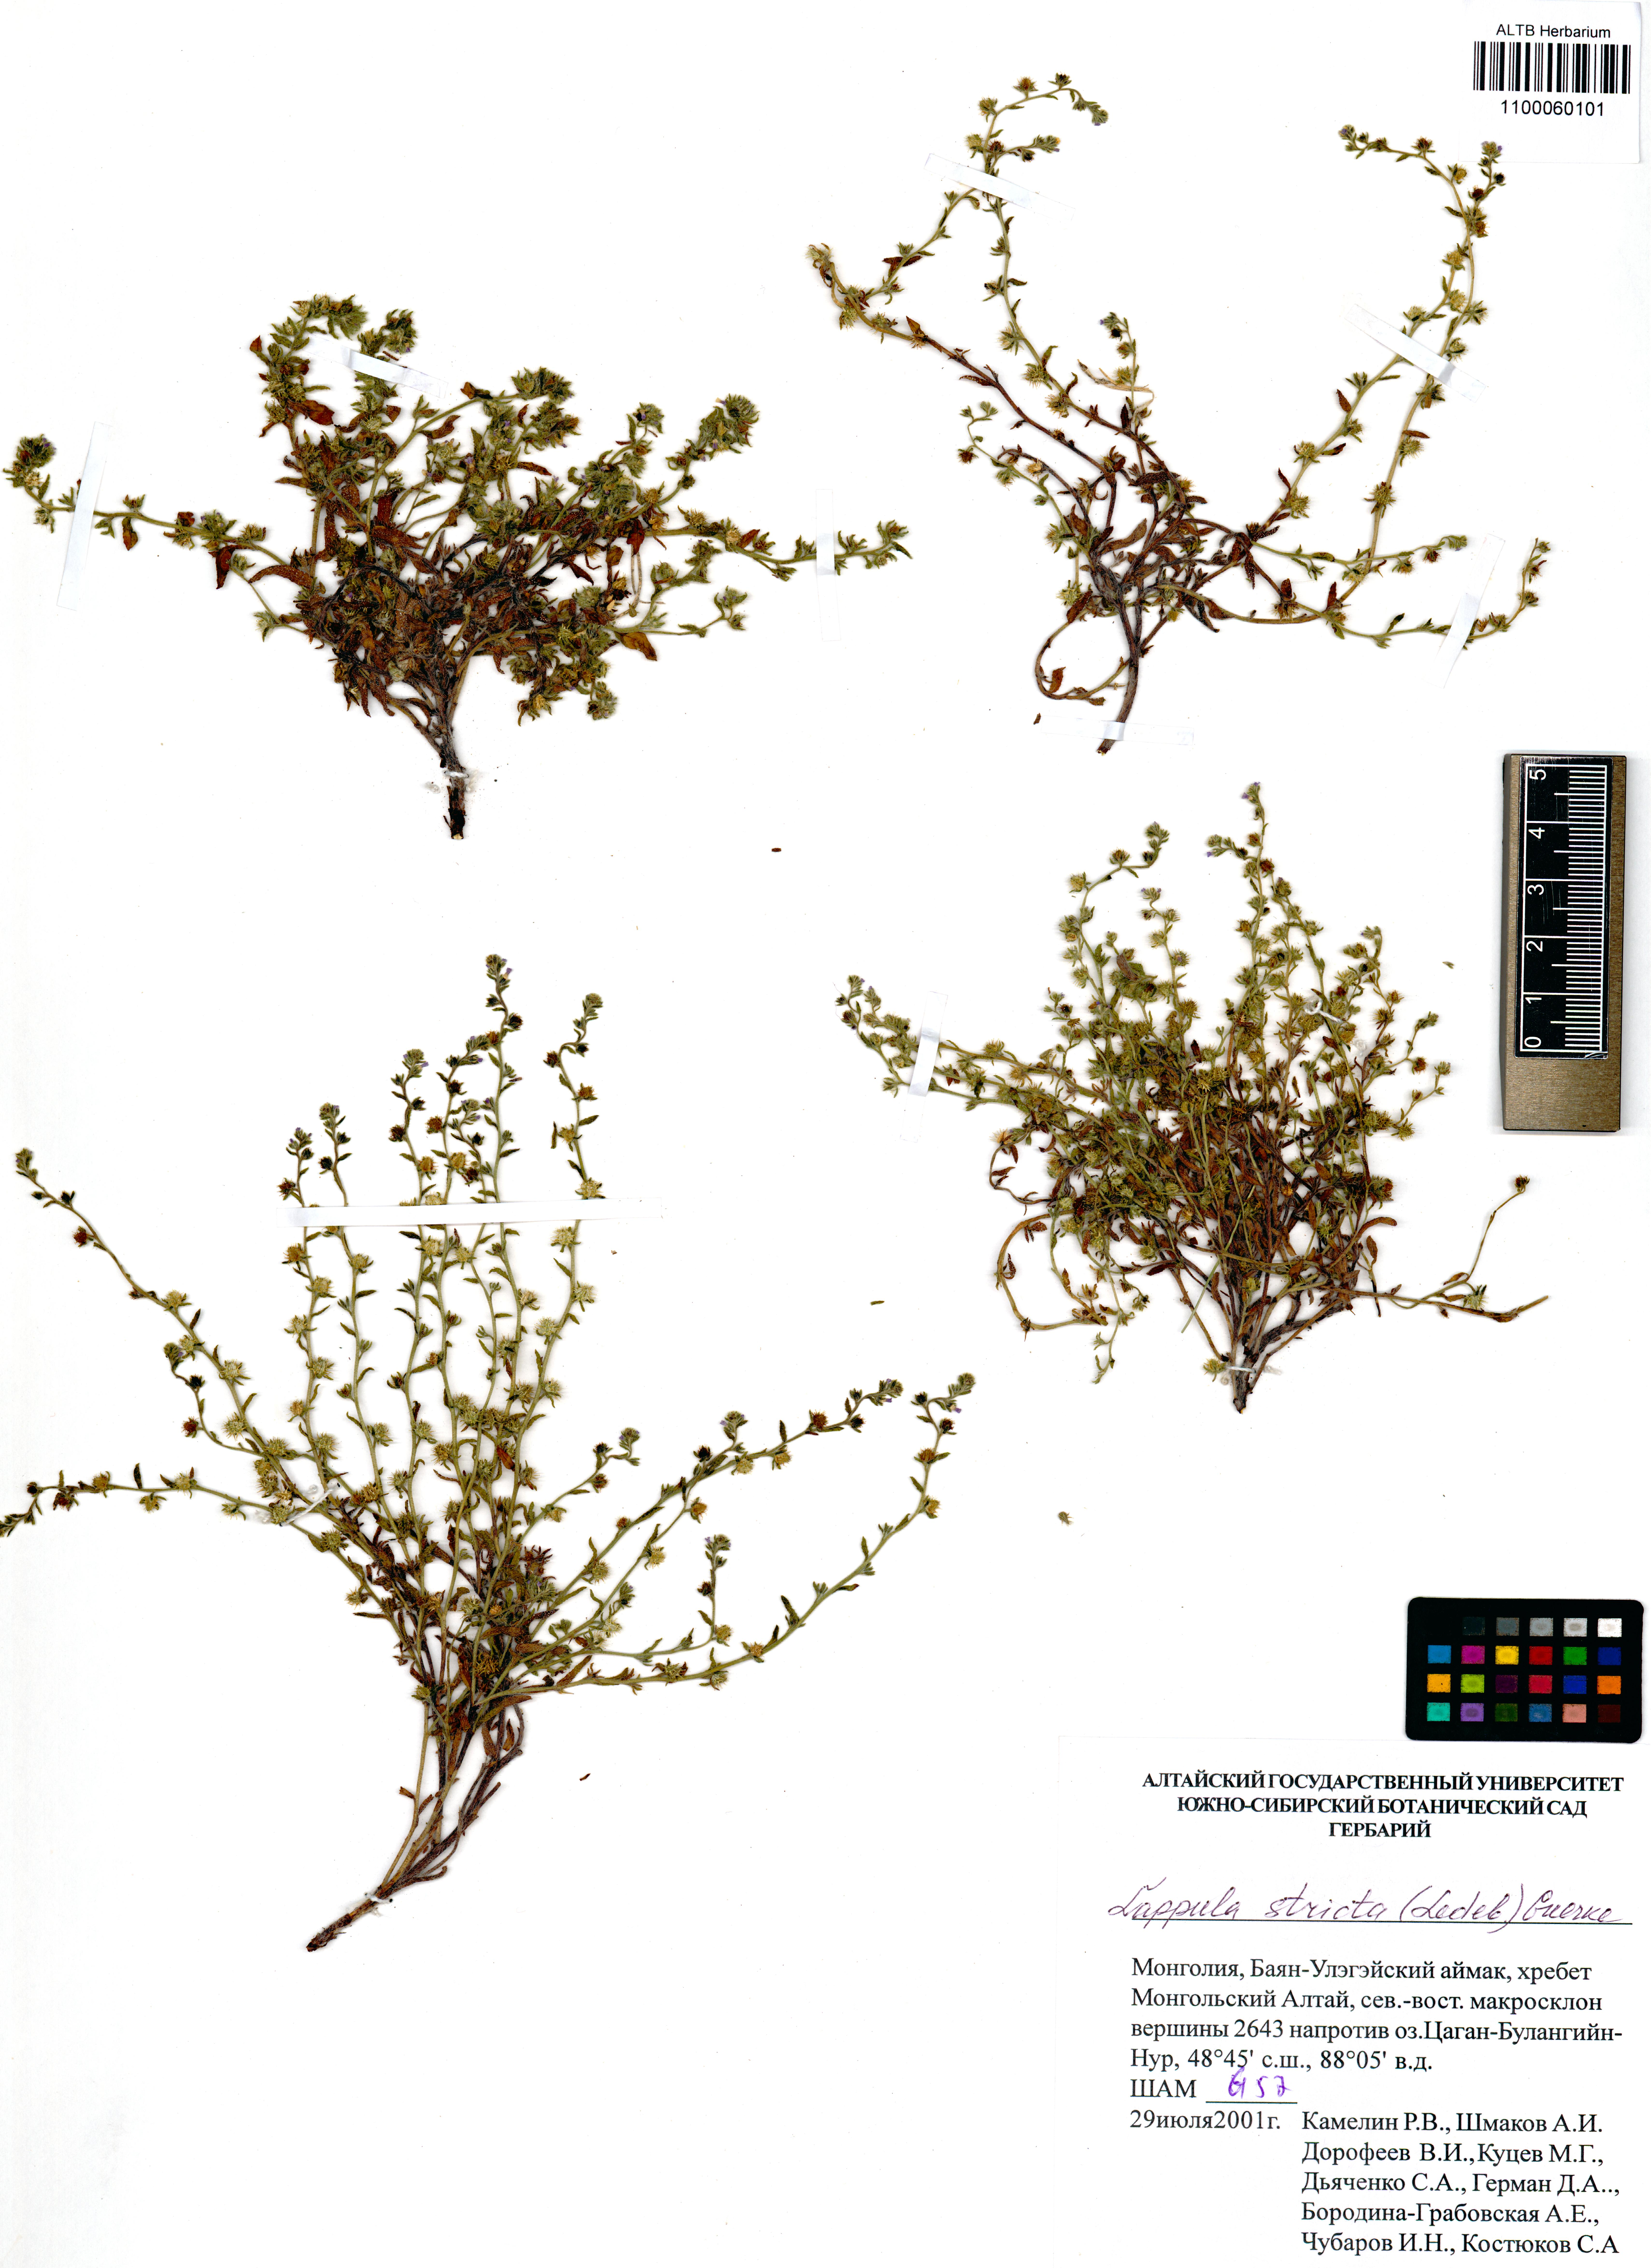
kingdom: Plantae
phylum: Tracheophyta
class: Magnoliopsida
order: Boraginales
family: Boraginaceae
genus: Lappula
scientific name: Lappula stricta
